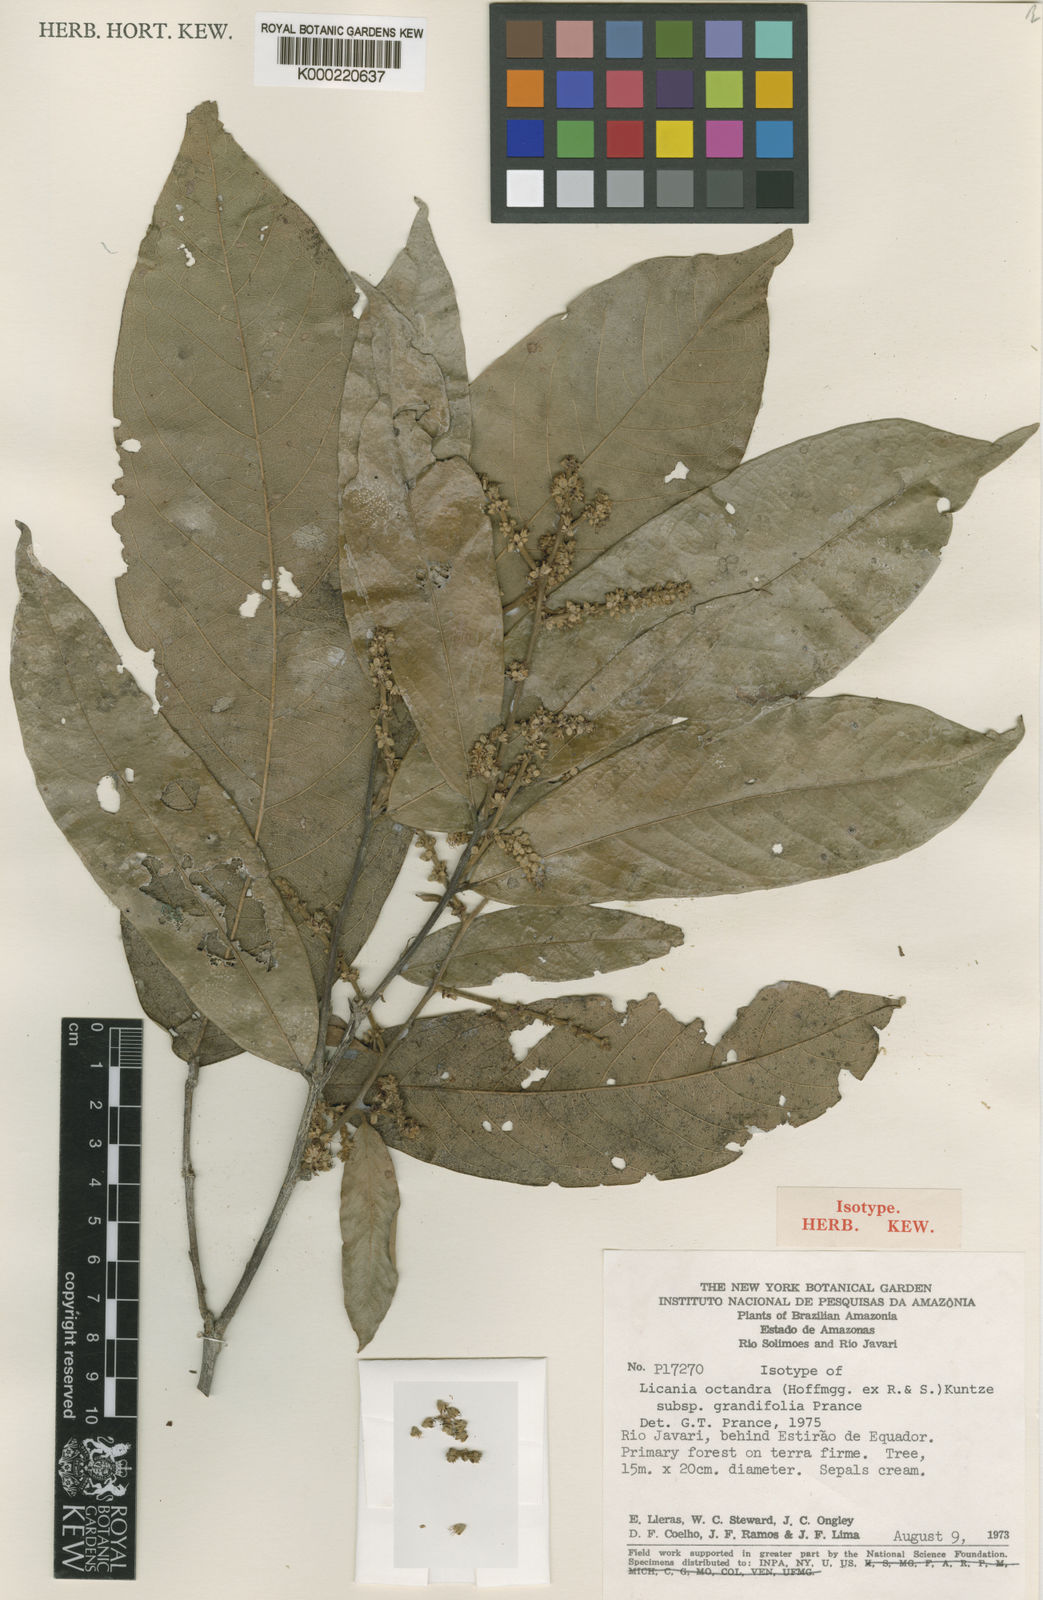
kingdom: Plantae
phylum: Tracheophyta
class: Magnoliopsida
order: Malpighiales
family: Chrysobalanaceae
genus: Leptobalanus
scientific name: Leptobalanus octandrus
